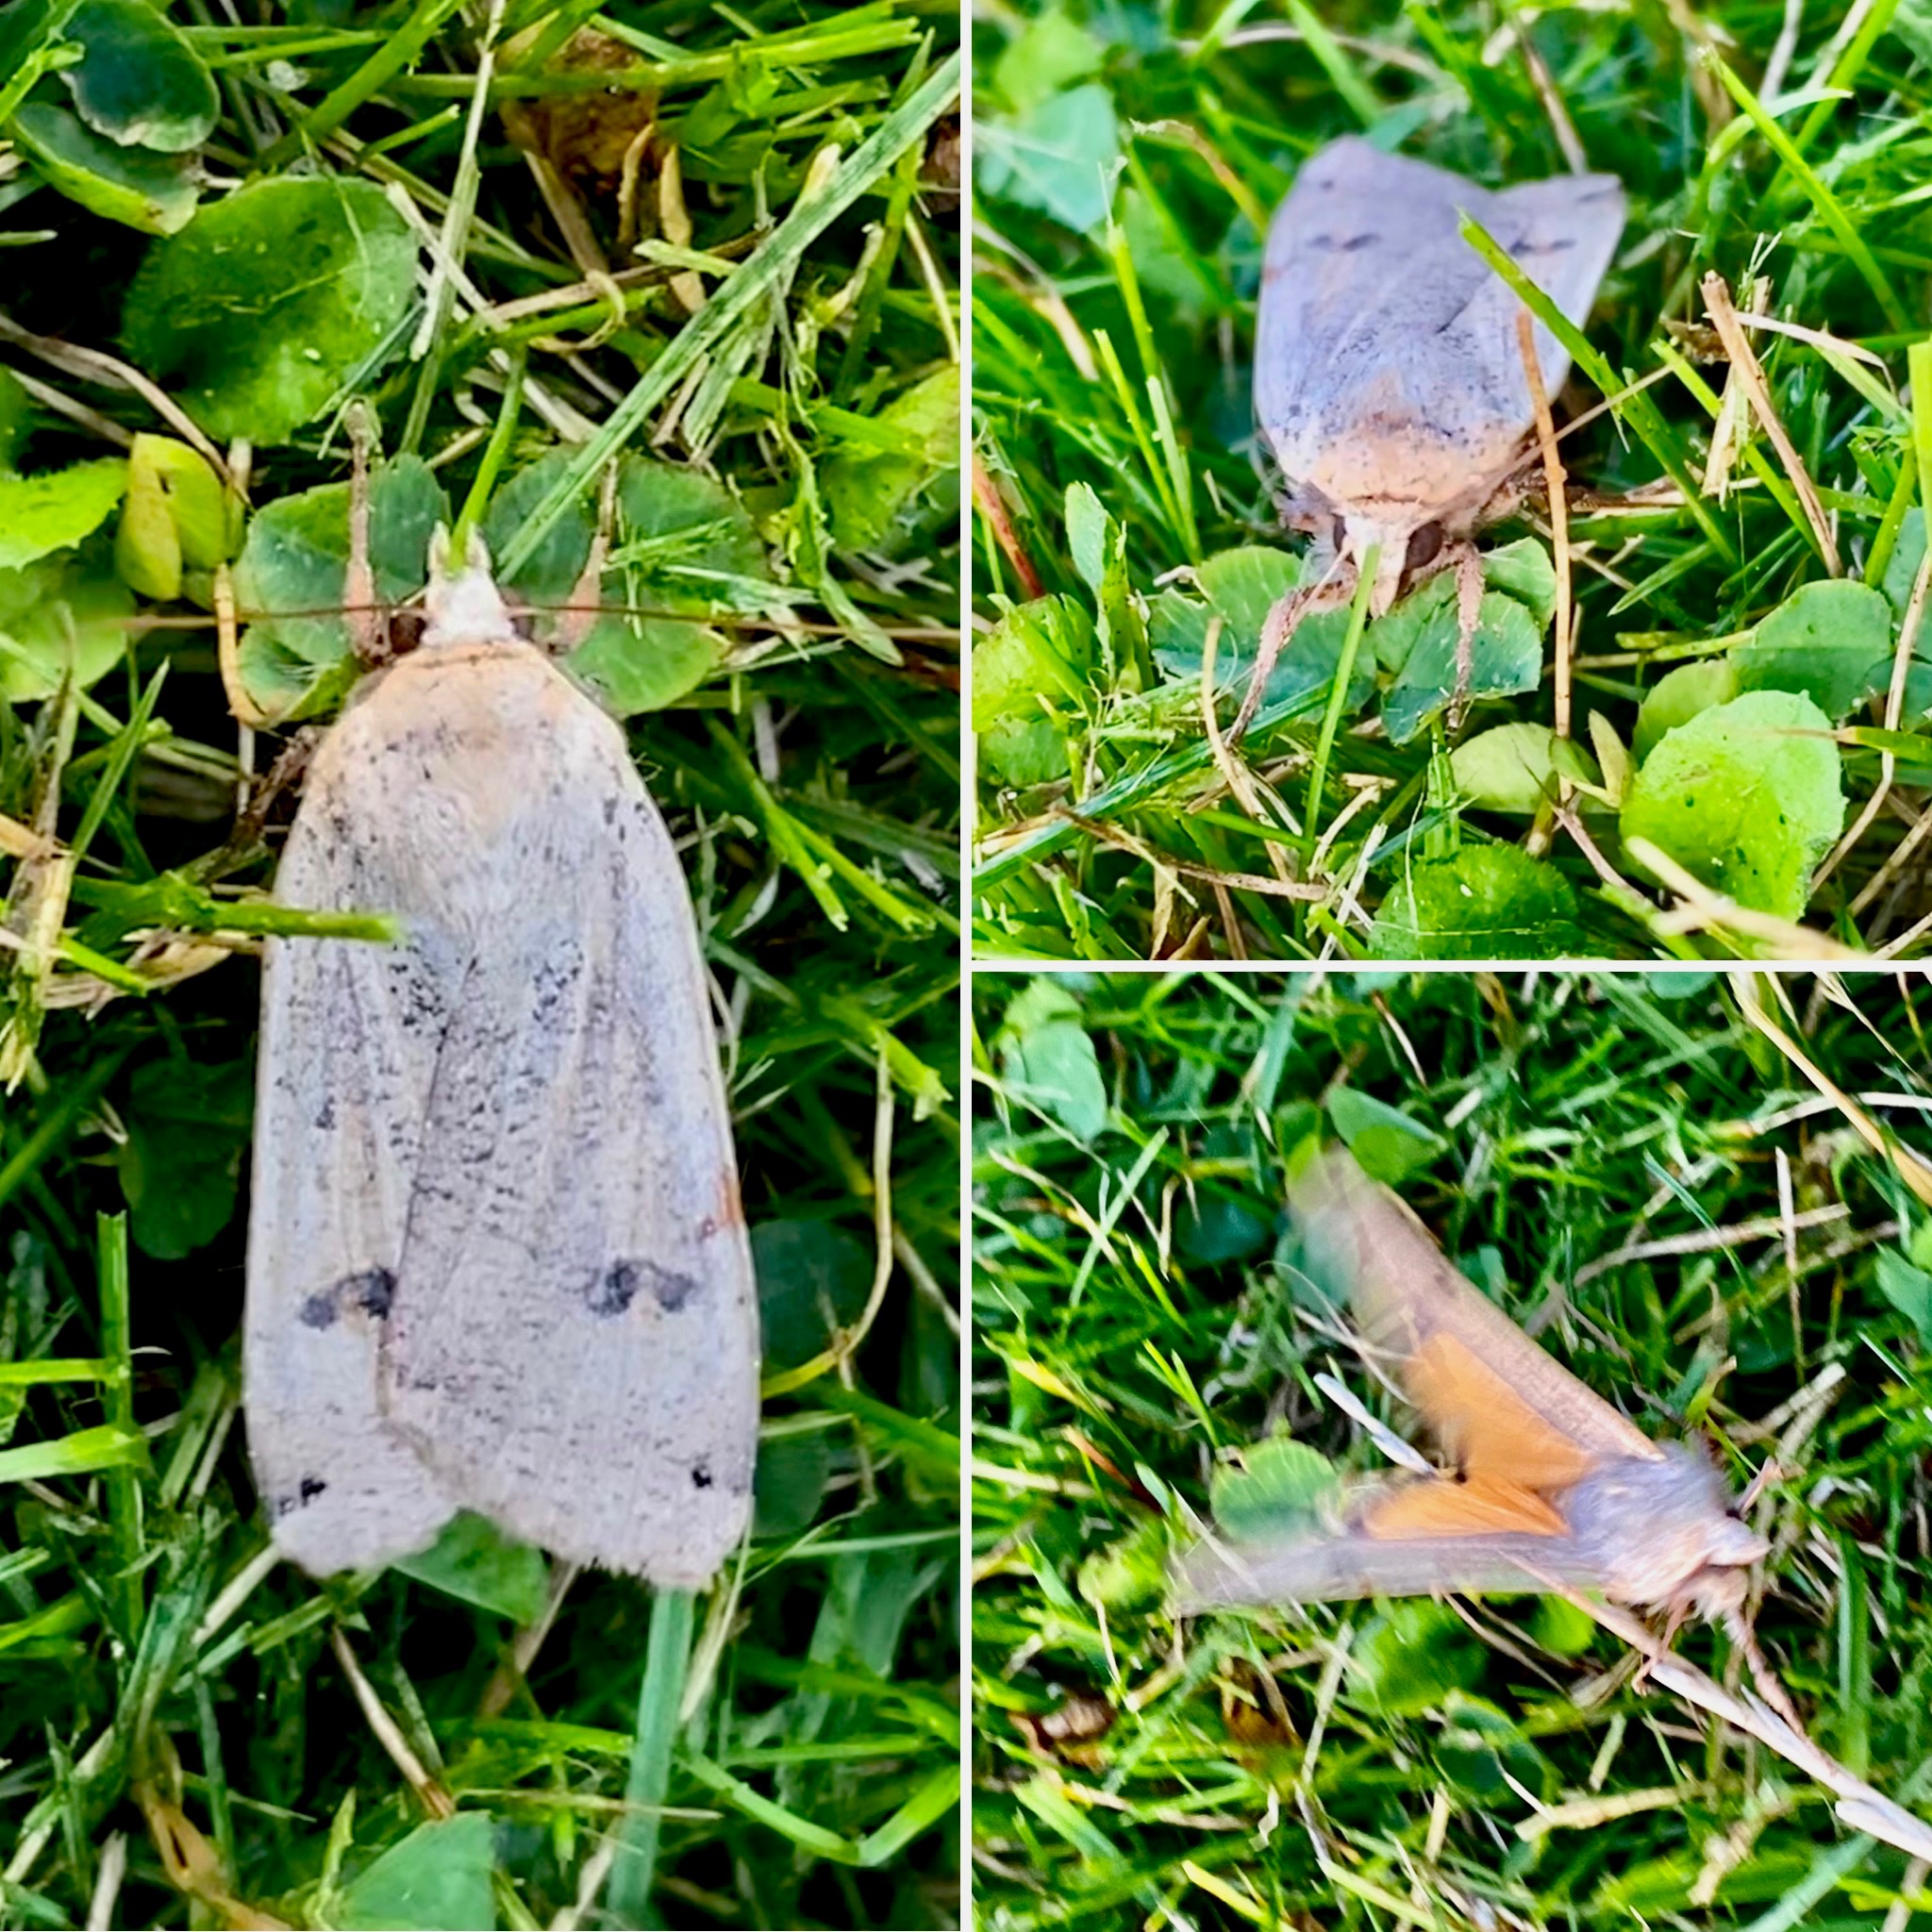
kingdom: Animalia
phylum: Arthropoda
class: Insecta
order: Lepidoptera
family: Noctuidae
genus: Noctua
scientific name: Noctua pronuba
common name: Stor smutugle
